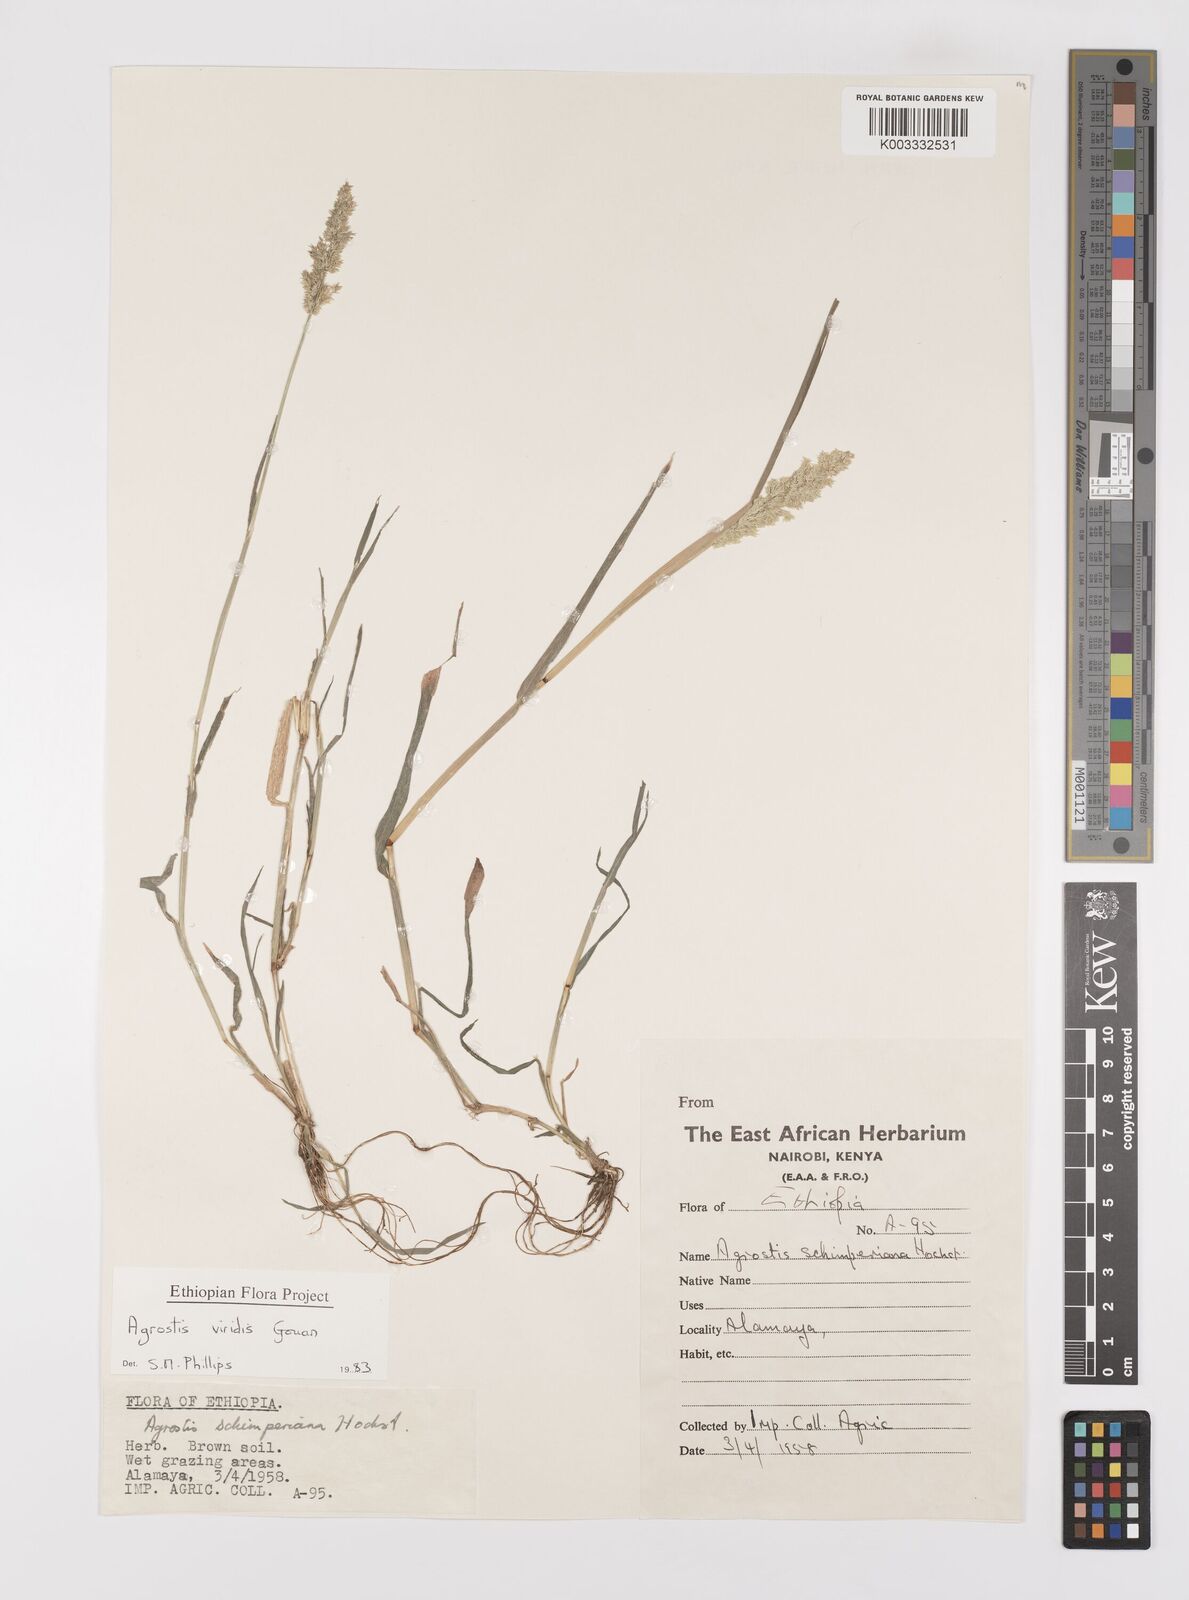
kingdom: Plantae
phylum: Tracheophyta
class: Liliopsida
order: Poales
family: Poaceae
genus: Polypogon
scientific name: Polypogon viridis
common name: Water bent
